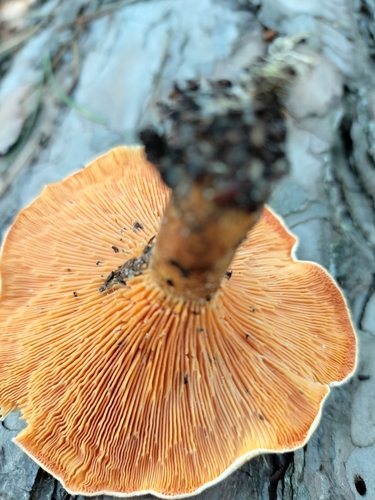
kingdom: Fungi
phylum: Basidiomycota
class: Agaricomycetes
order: Boletales
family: Hygrophoropsidaceae
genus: Hygrophoropsis
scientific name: Hygrophoropsis aurantiaca
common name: False chanterelle
